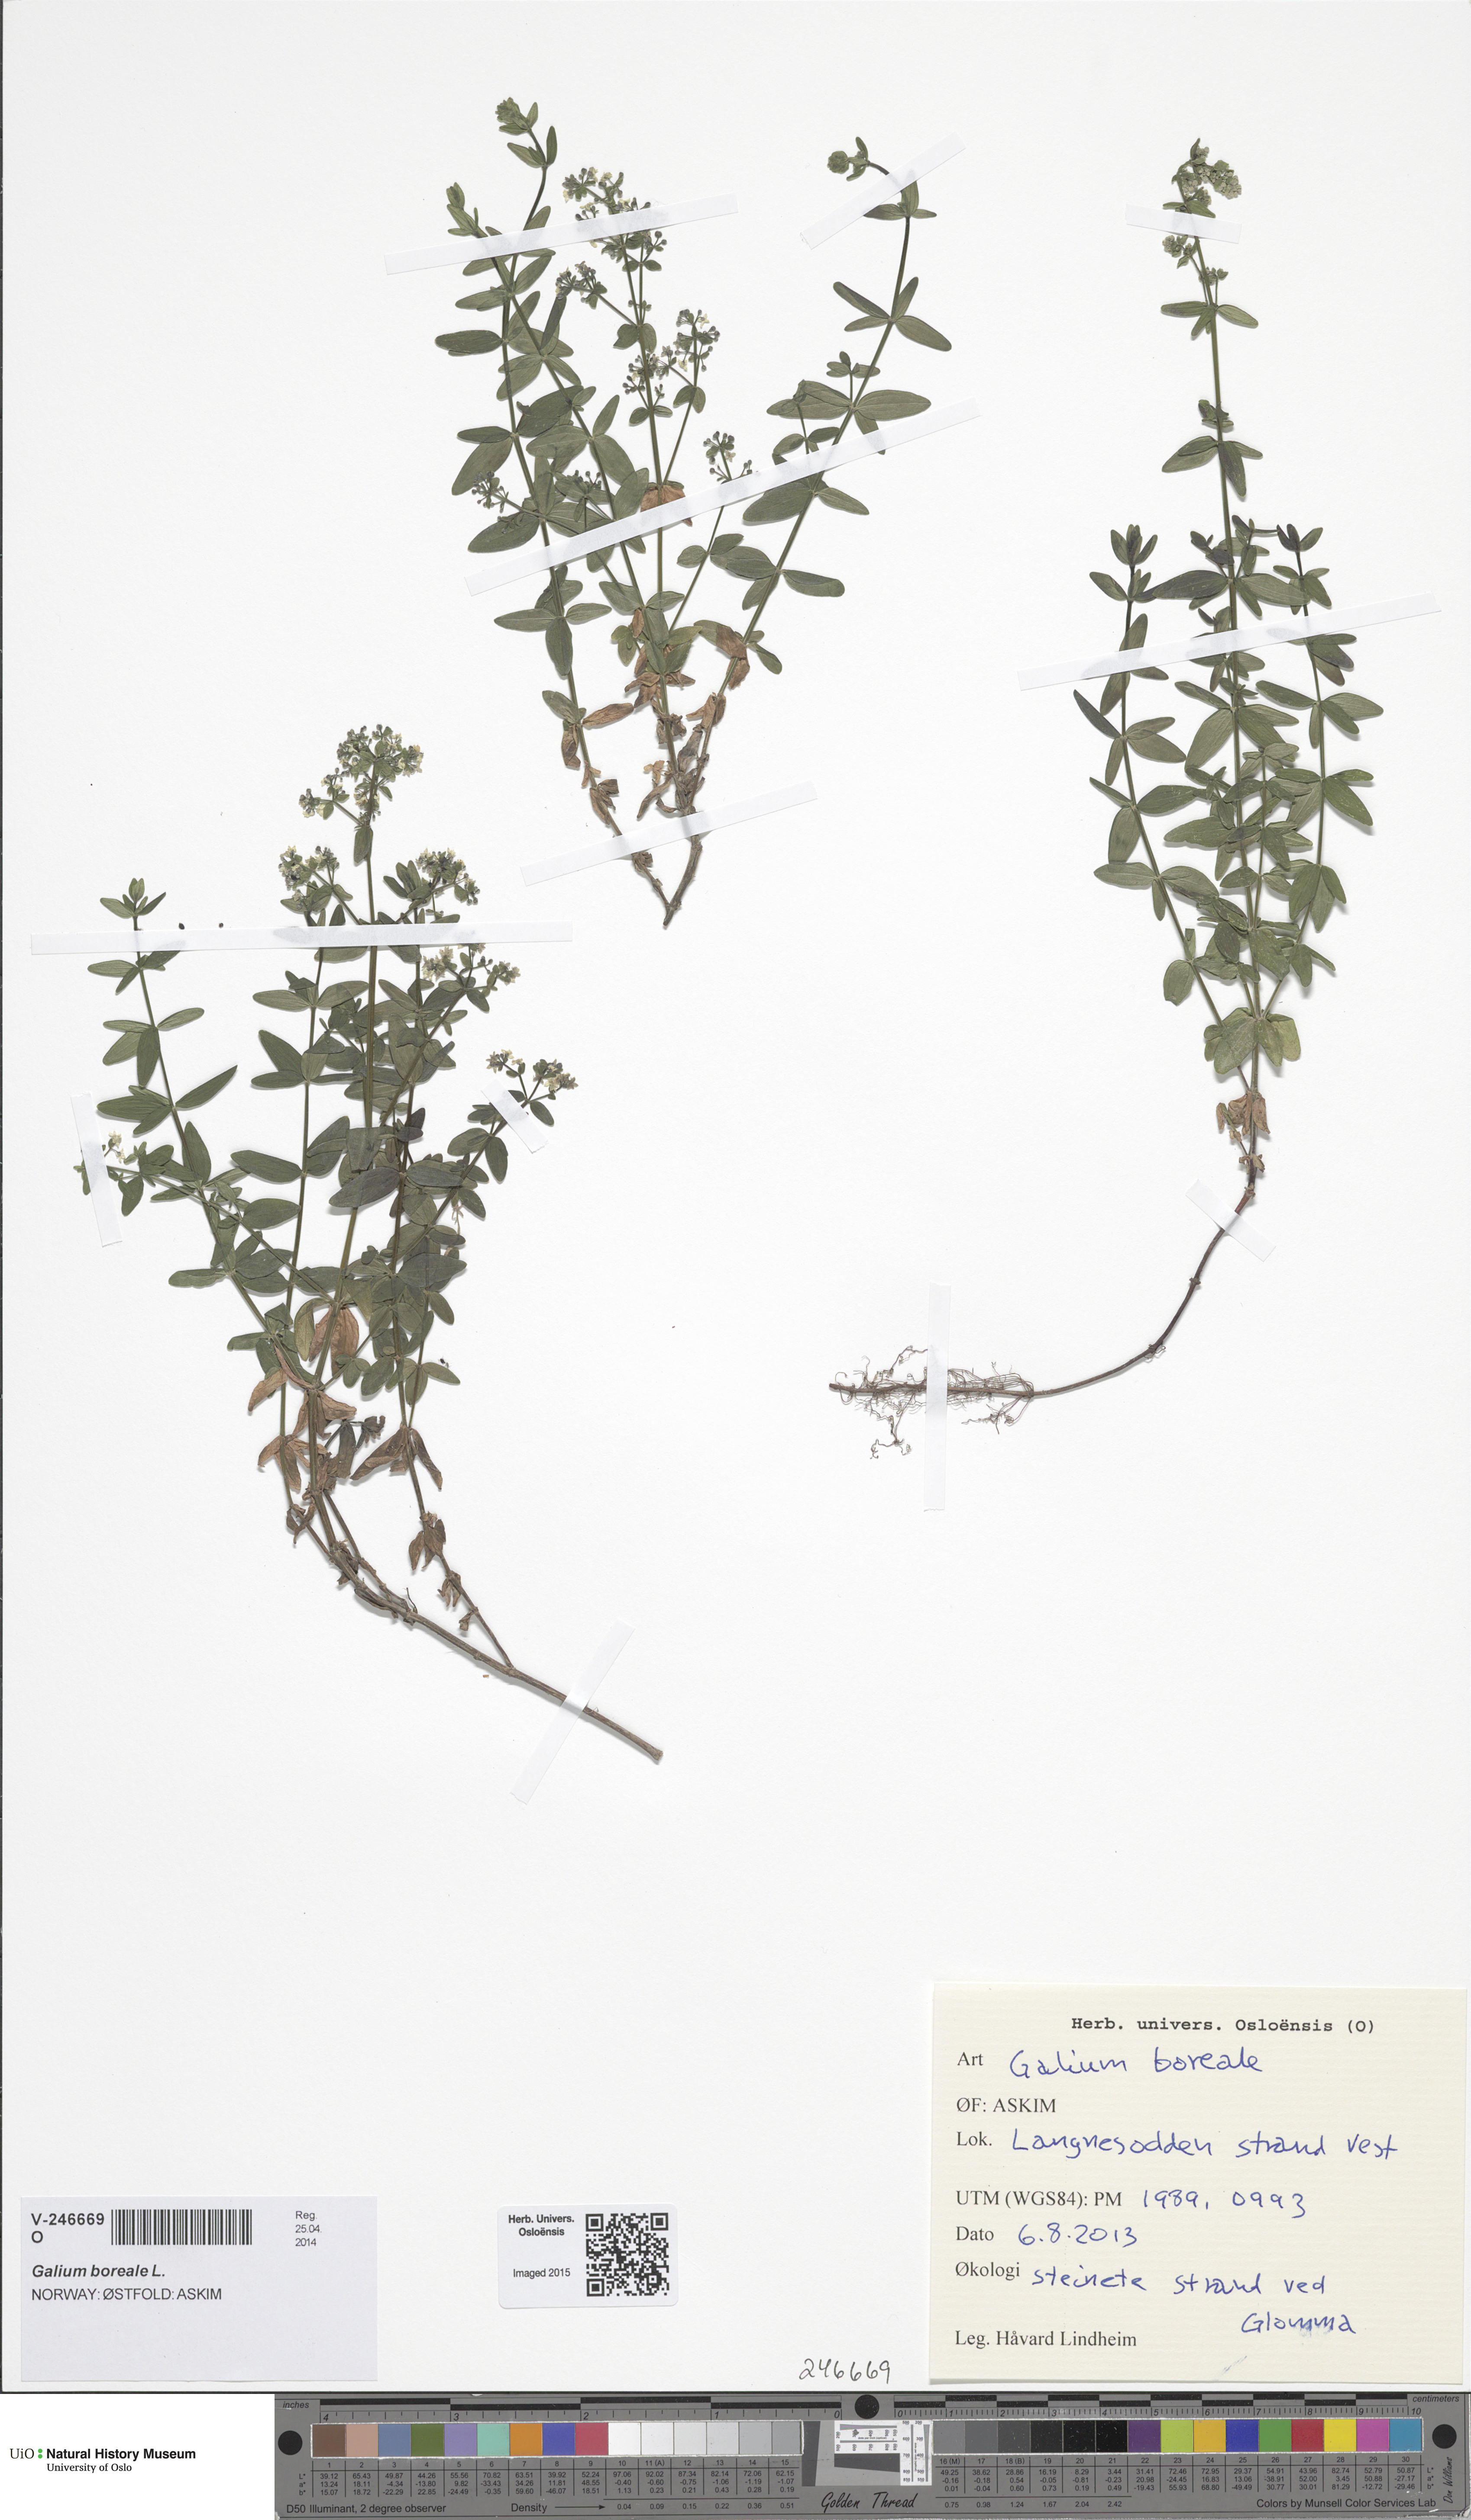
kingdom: Plantae
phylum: Tracheophyta
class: Magnoliopsida
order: Gentianales
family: Rubiaceae
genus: Galium
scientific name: Galium boreale
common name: Northern bedstraw
